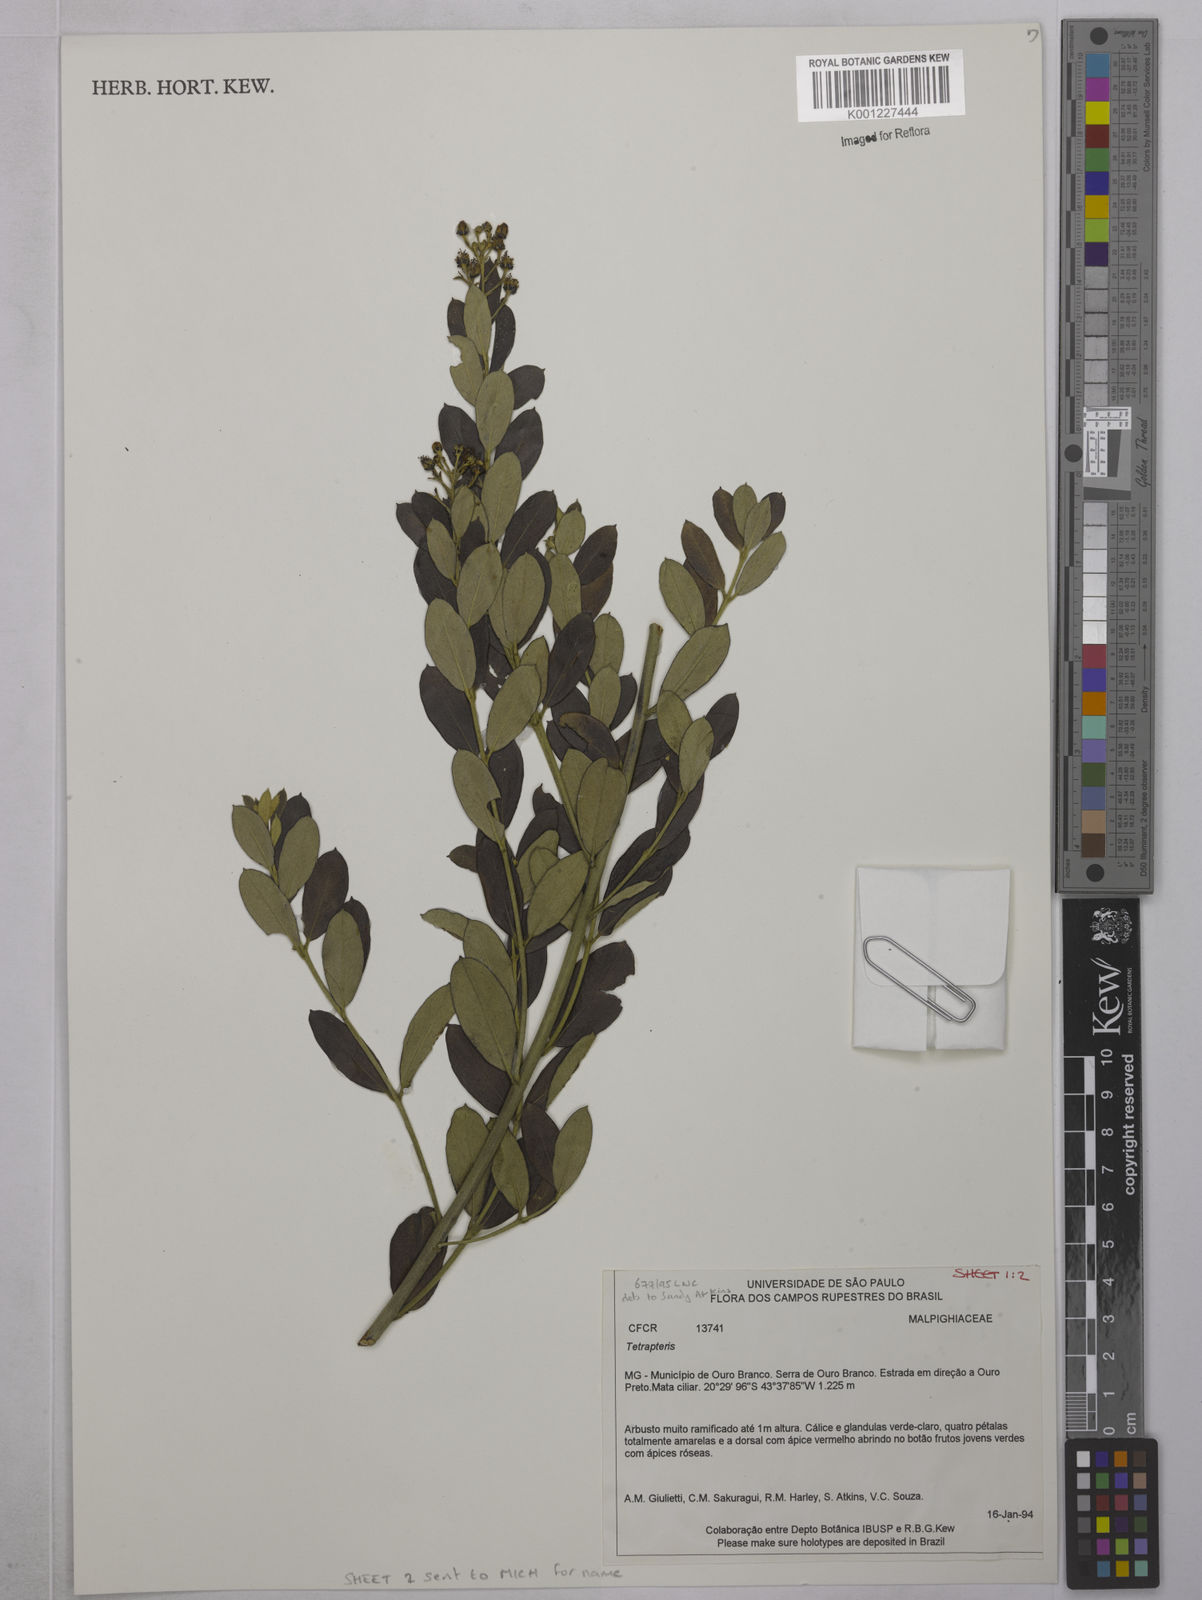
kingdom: Plantae
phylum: Tracheophyta
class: Magnoliopsida
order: Malpighiales
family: Malpighiaceae
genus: Tetrapterys
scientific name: Tetrapterys
